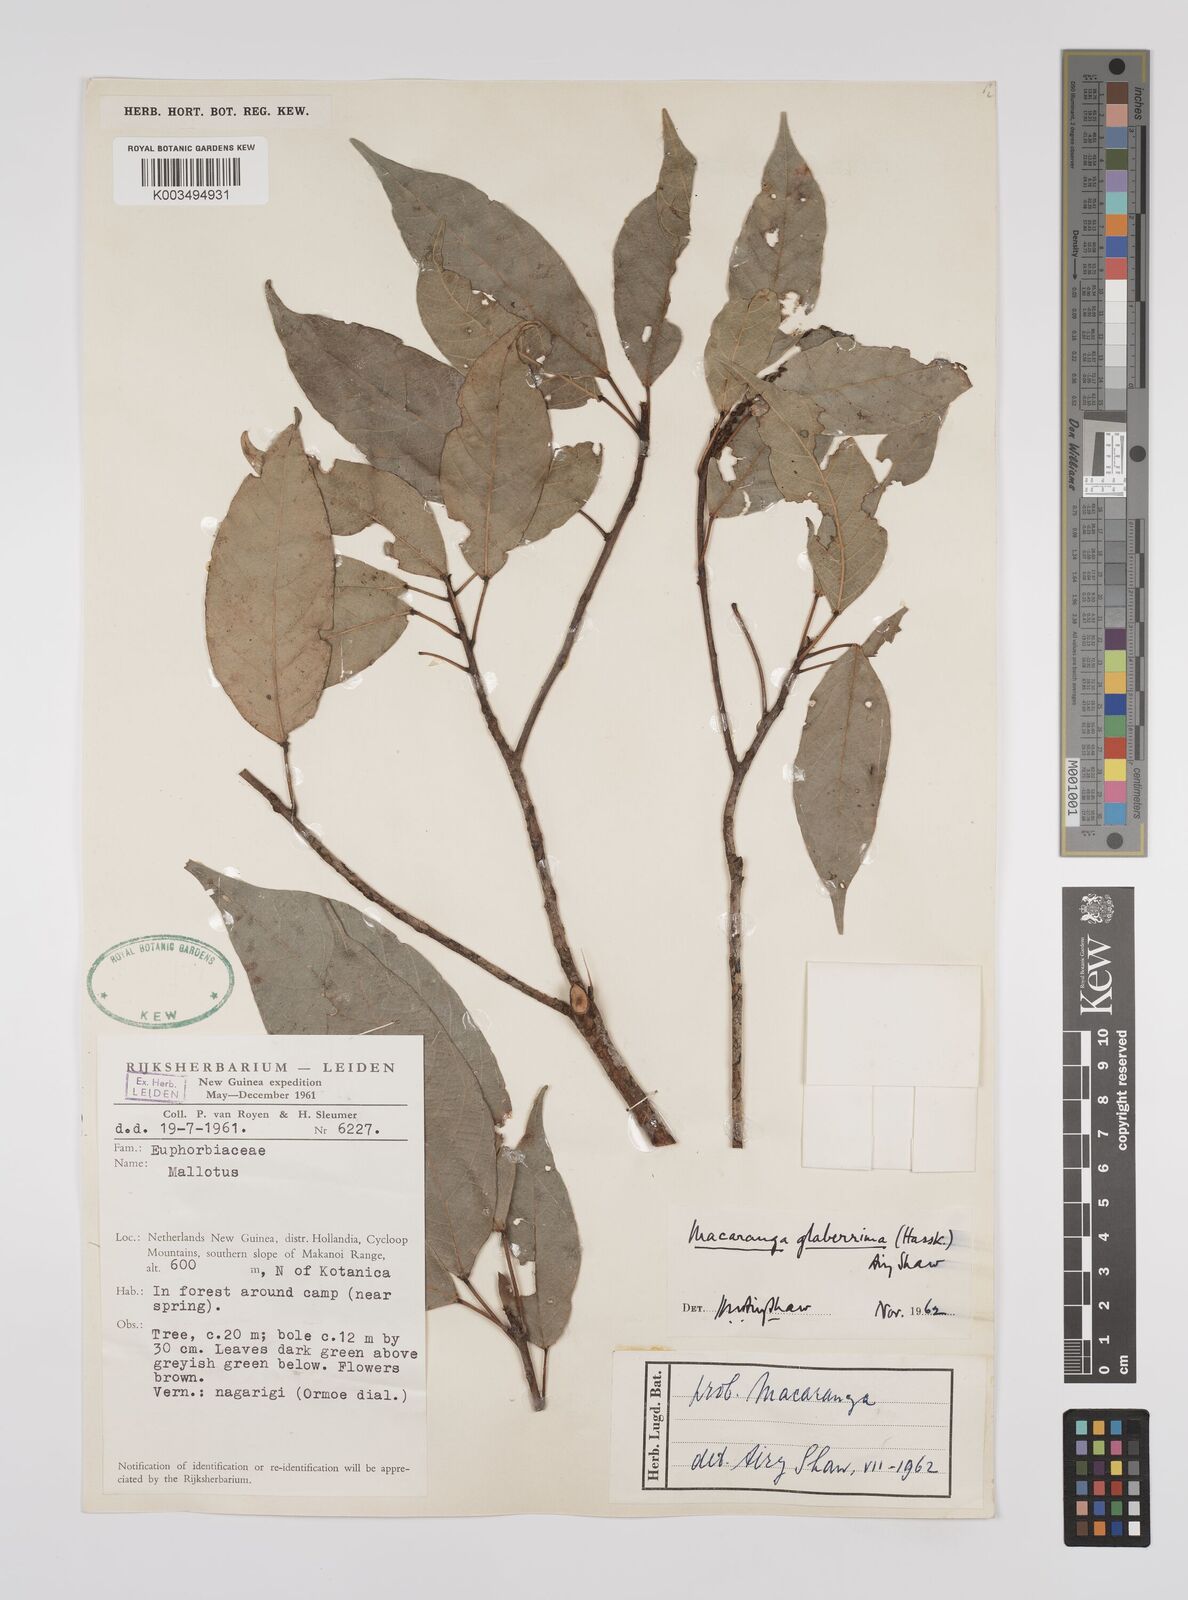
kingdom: Plantae
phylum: Tracheophyta
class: Magnoliopsida
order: Malpighiales
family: Euphorbiaceae
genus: Macaranga
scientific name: Macaranga glaberrima
